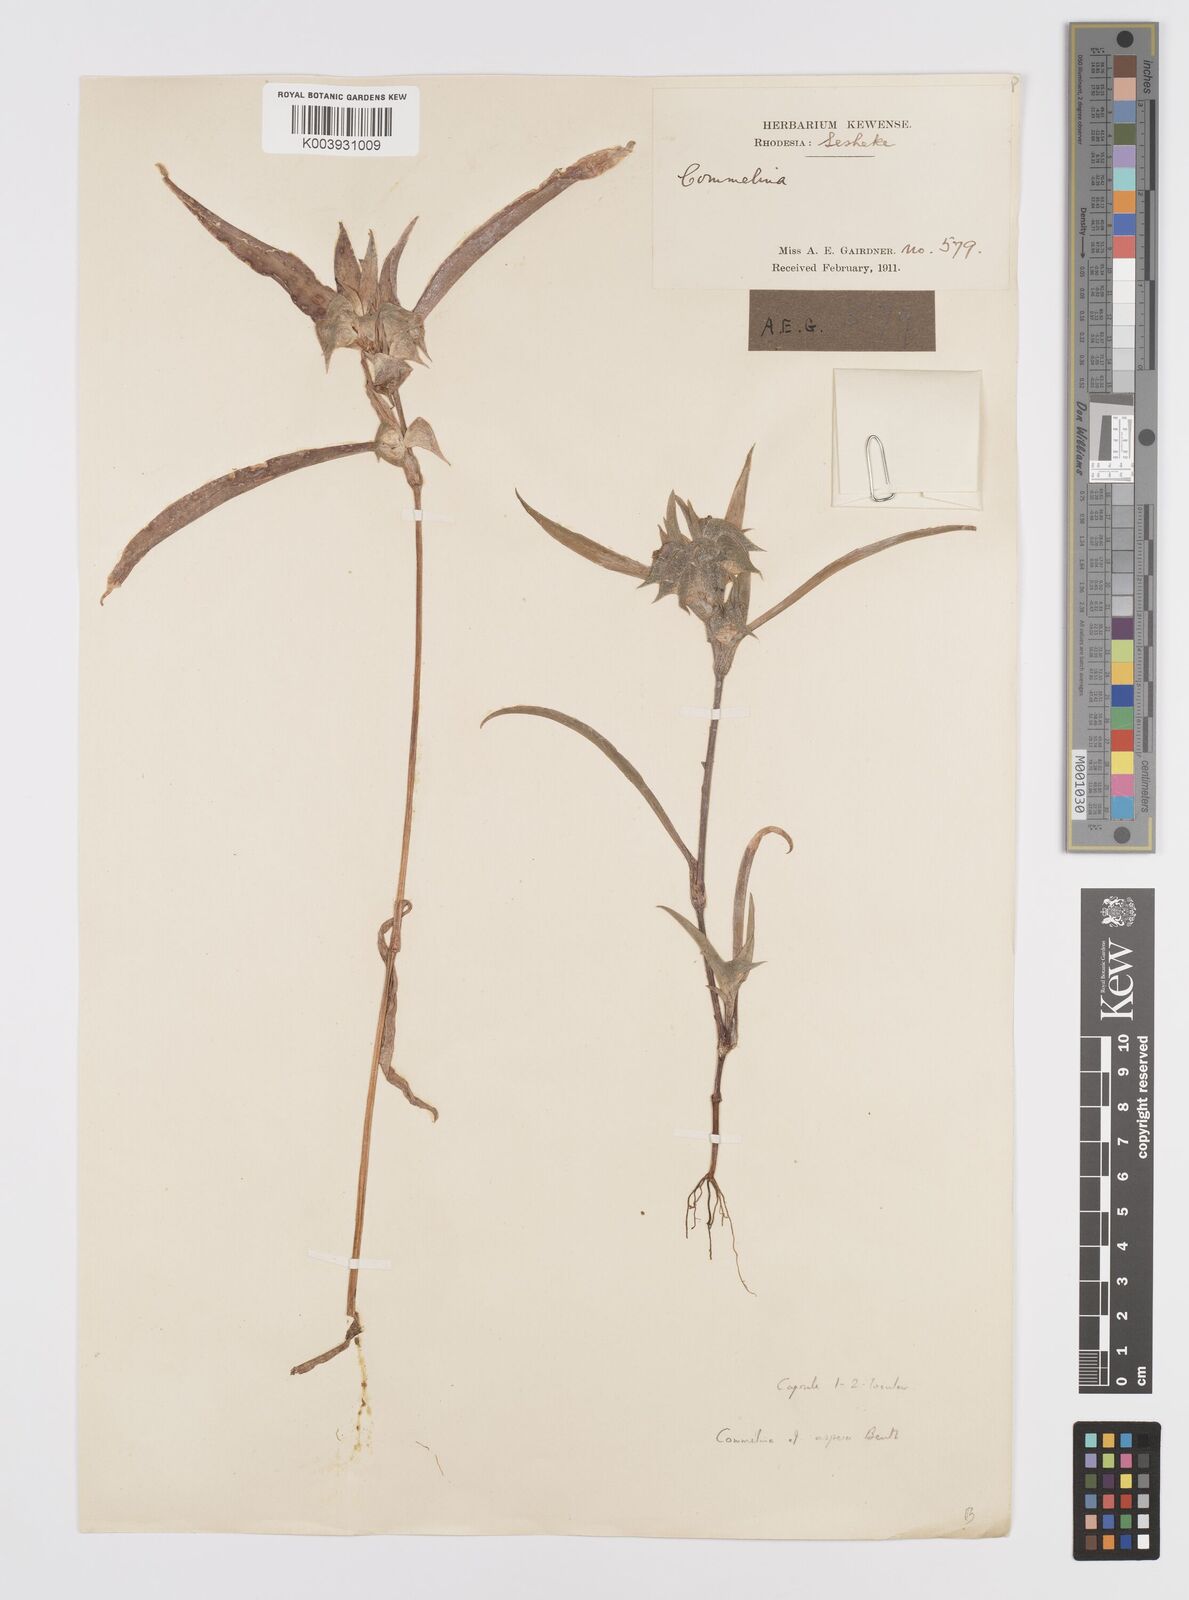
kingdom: Plantae
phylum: Tracheophyta
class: Liliopsida
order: Commelinales
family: Commelinaceae
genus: Commelina
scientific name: Commelina aspera
